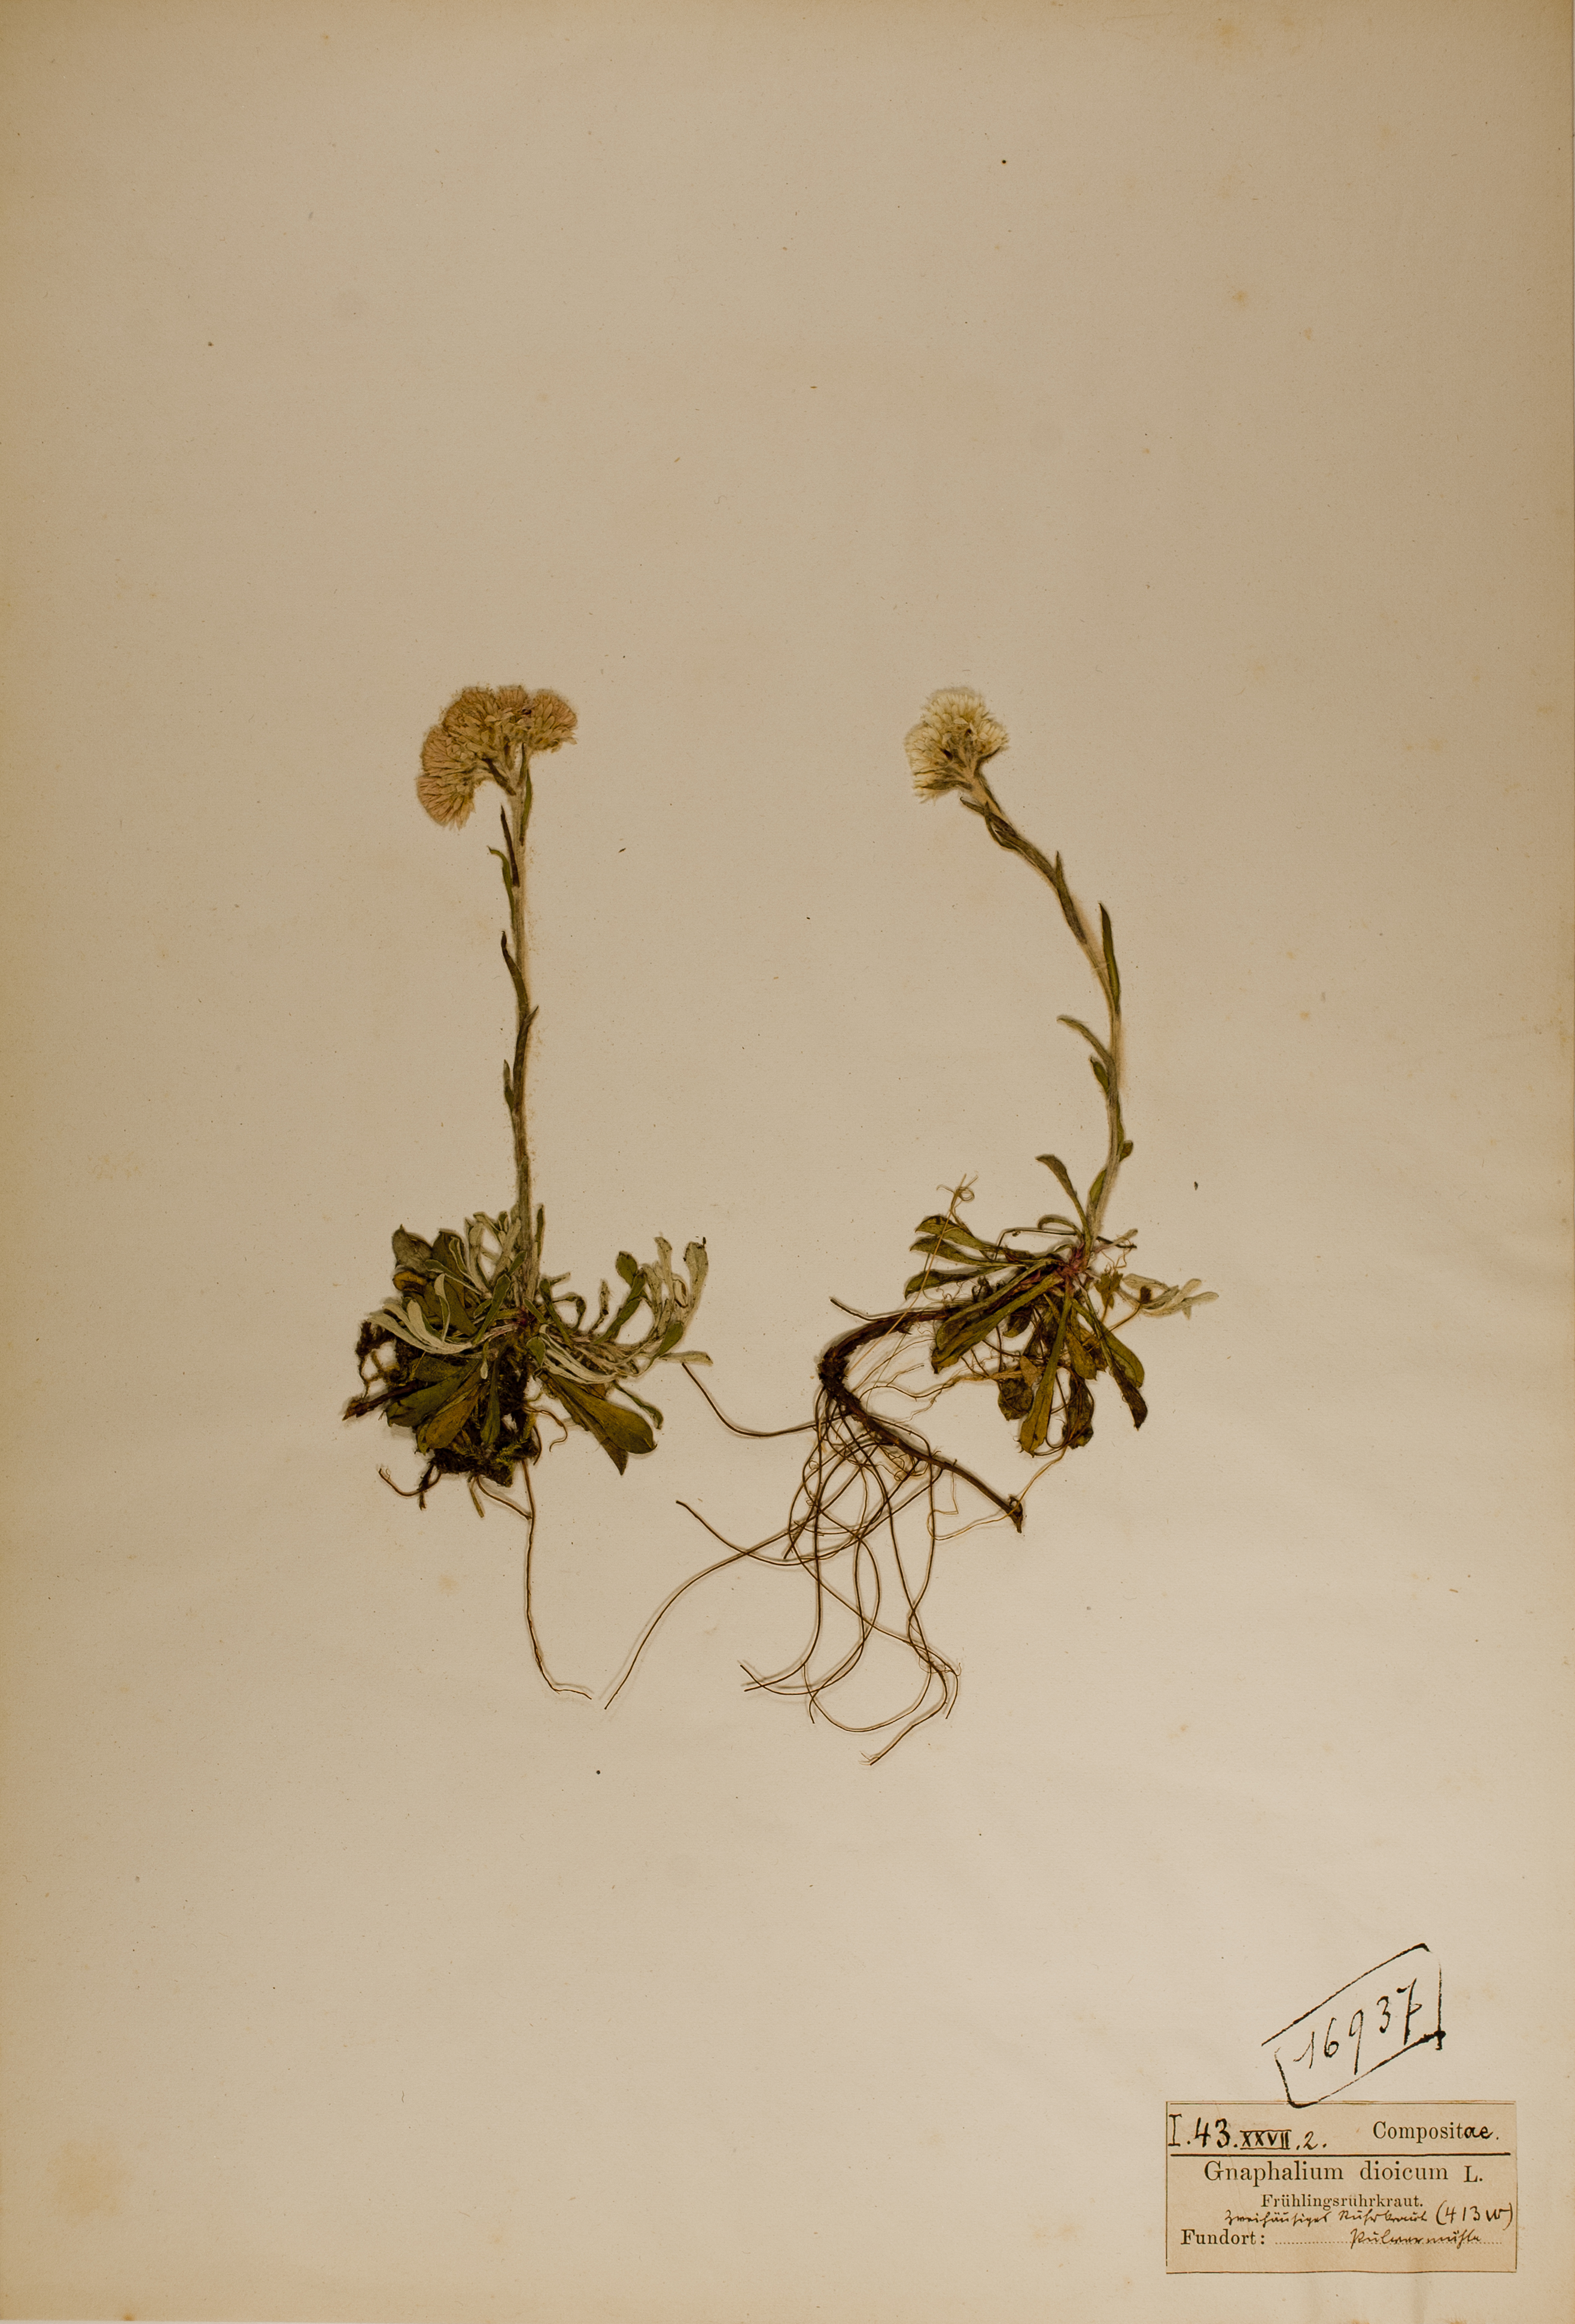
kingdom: Plantae
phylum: Tracheophyta
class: Magnoliopsida
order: Asterales
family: Asteraceae
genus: Antennaria
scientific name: Antennaria dioica
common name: Mountain everlasting
